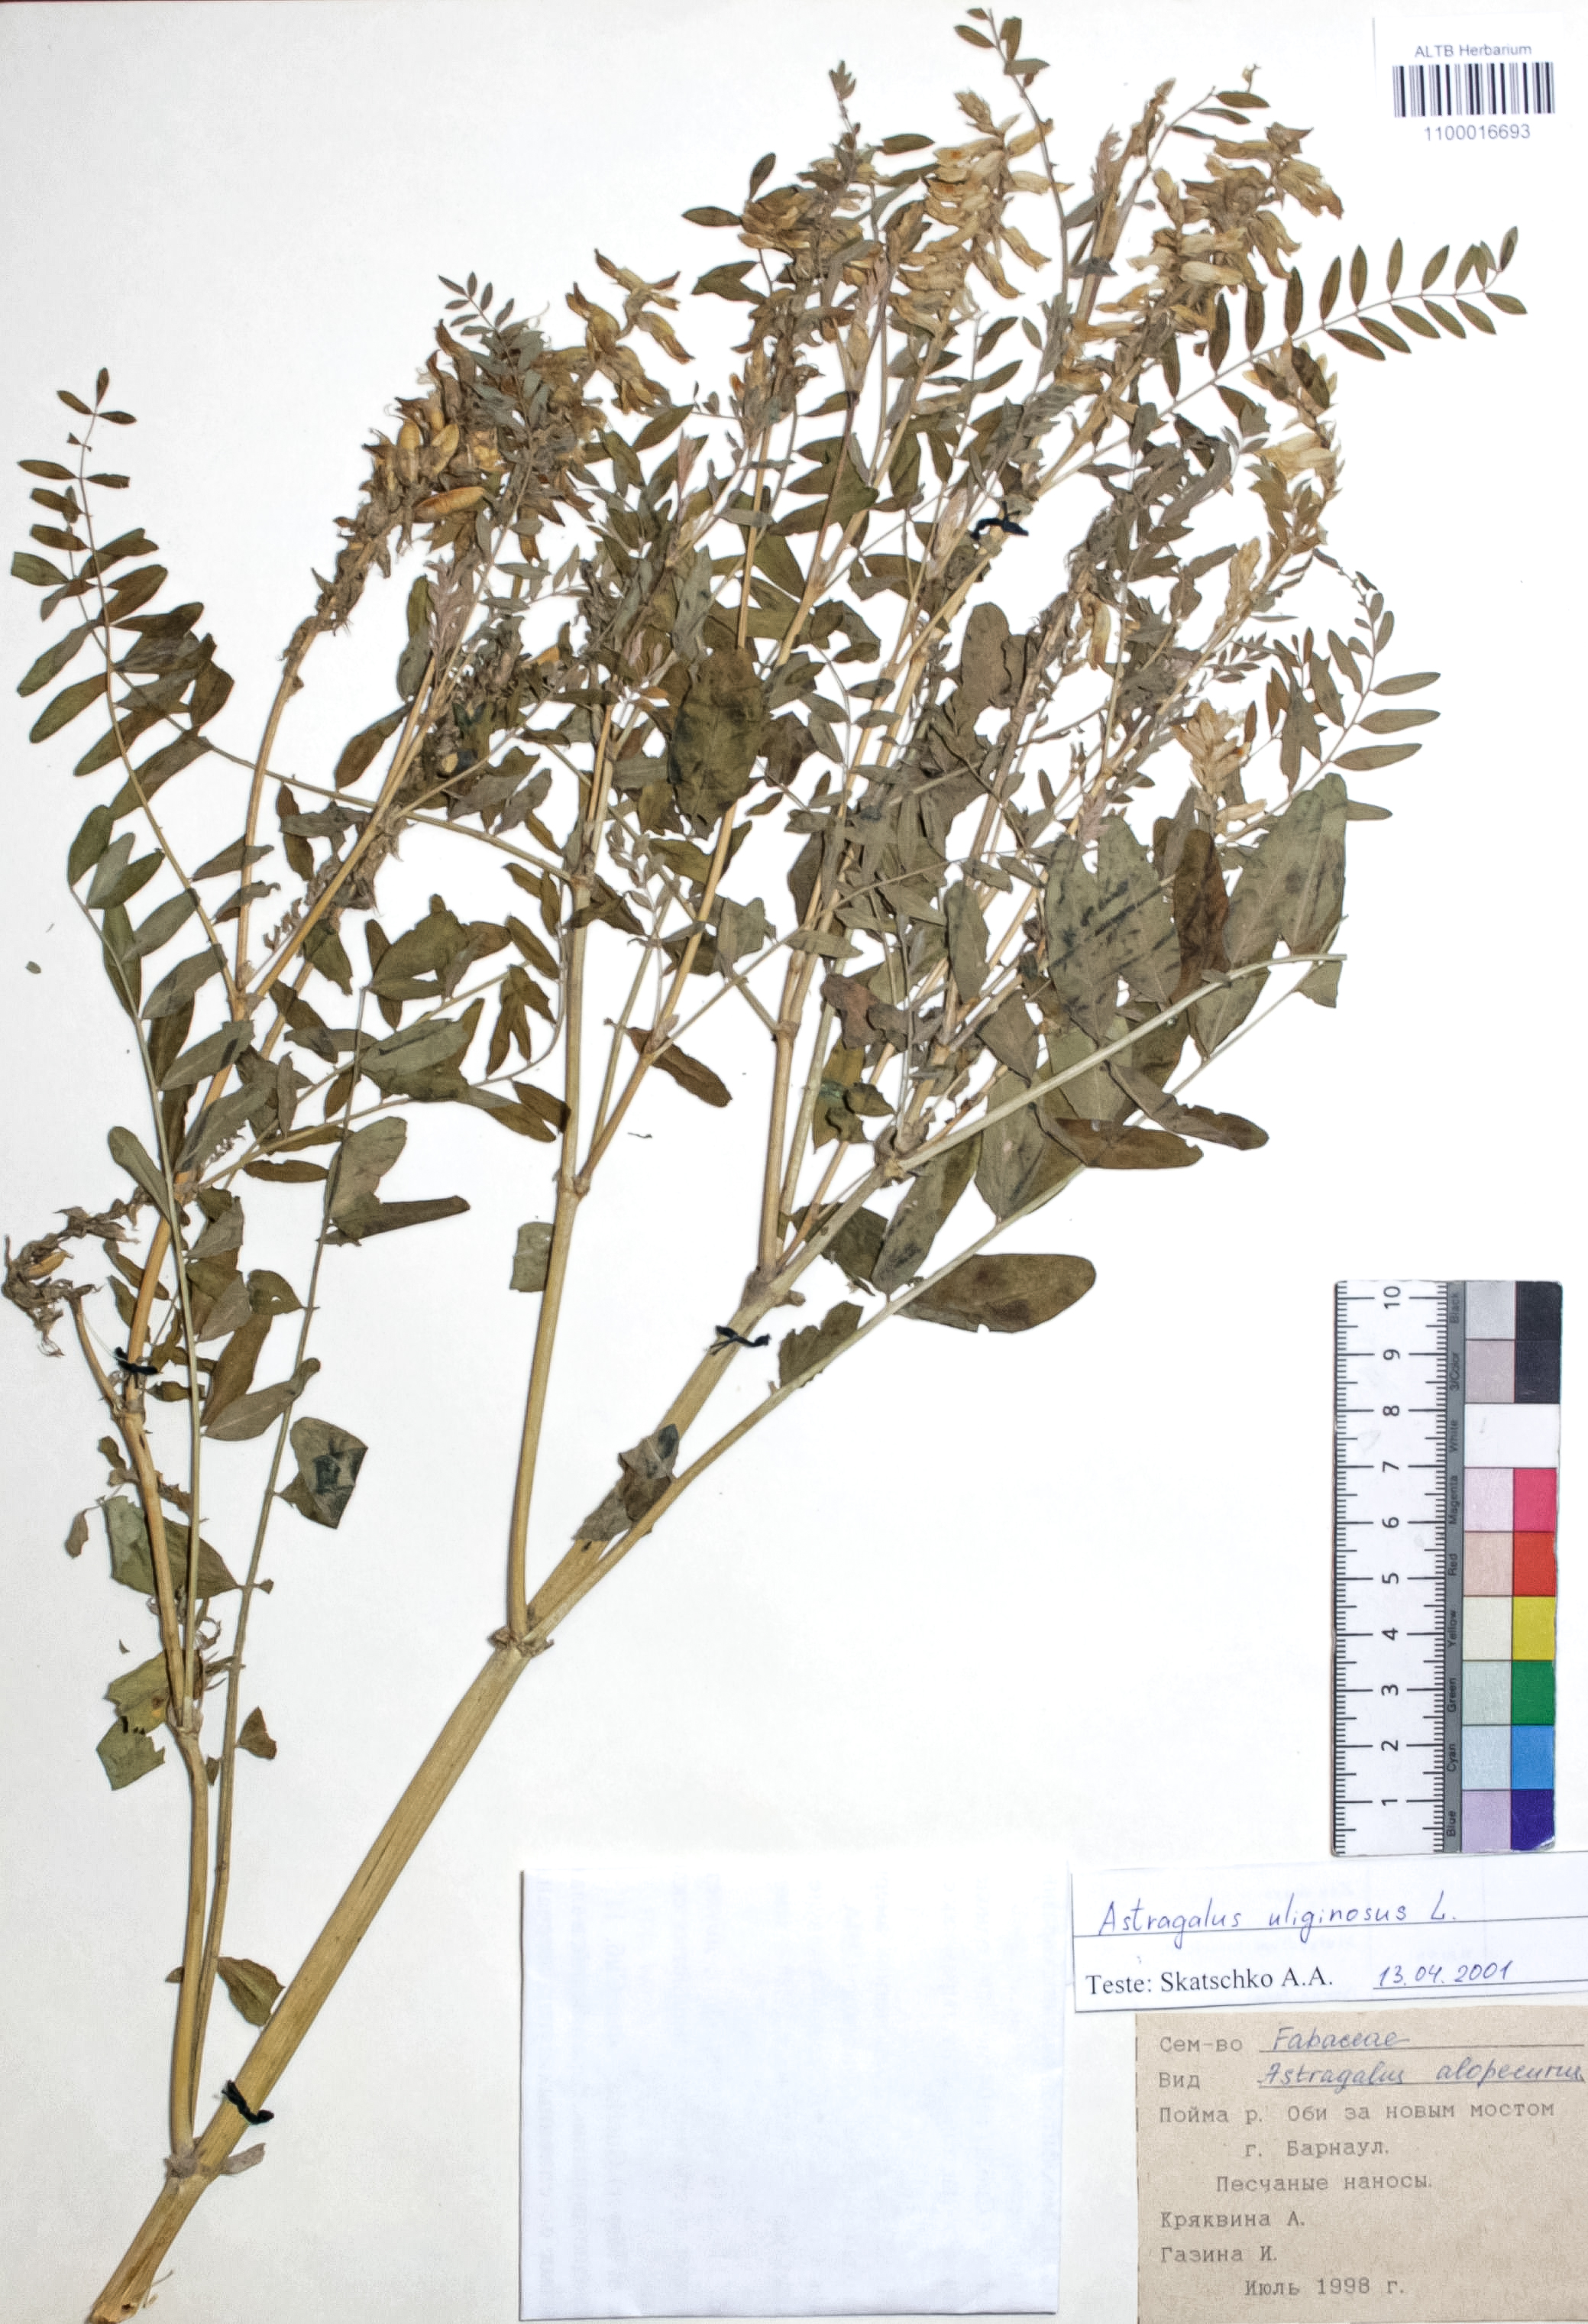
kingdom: Plantae
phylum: Tracheophyta
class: Magnoliopsida
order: Fabales
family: Fabaceae
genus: Astragalus
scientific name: Astragalus uliginosus
